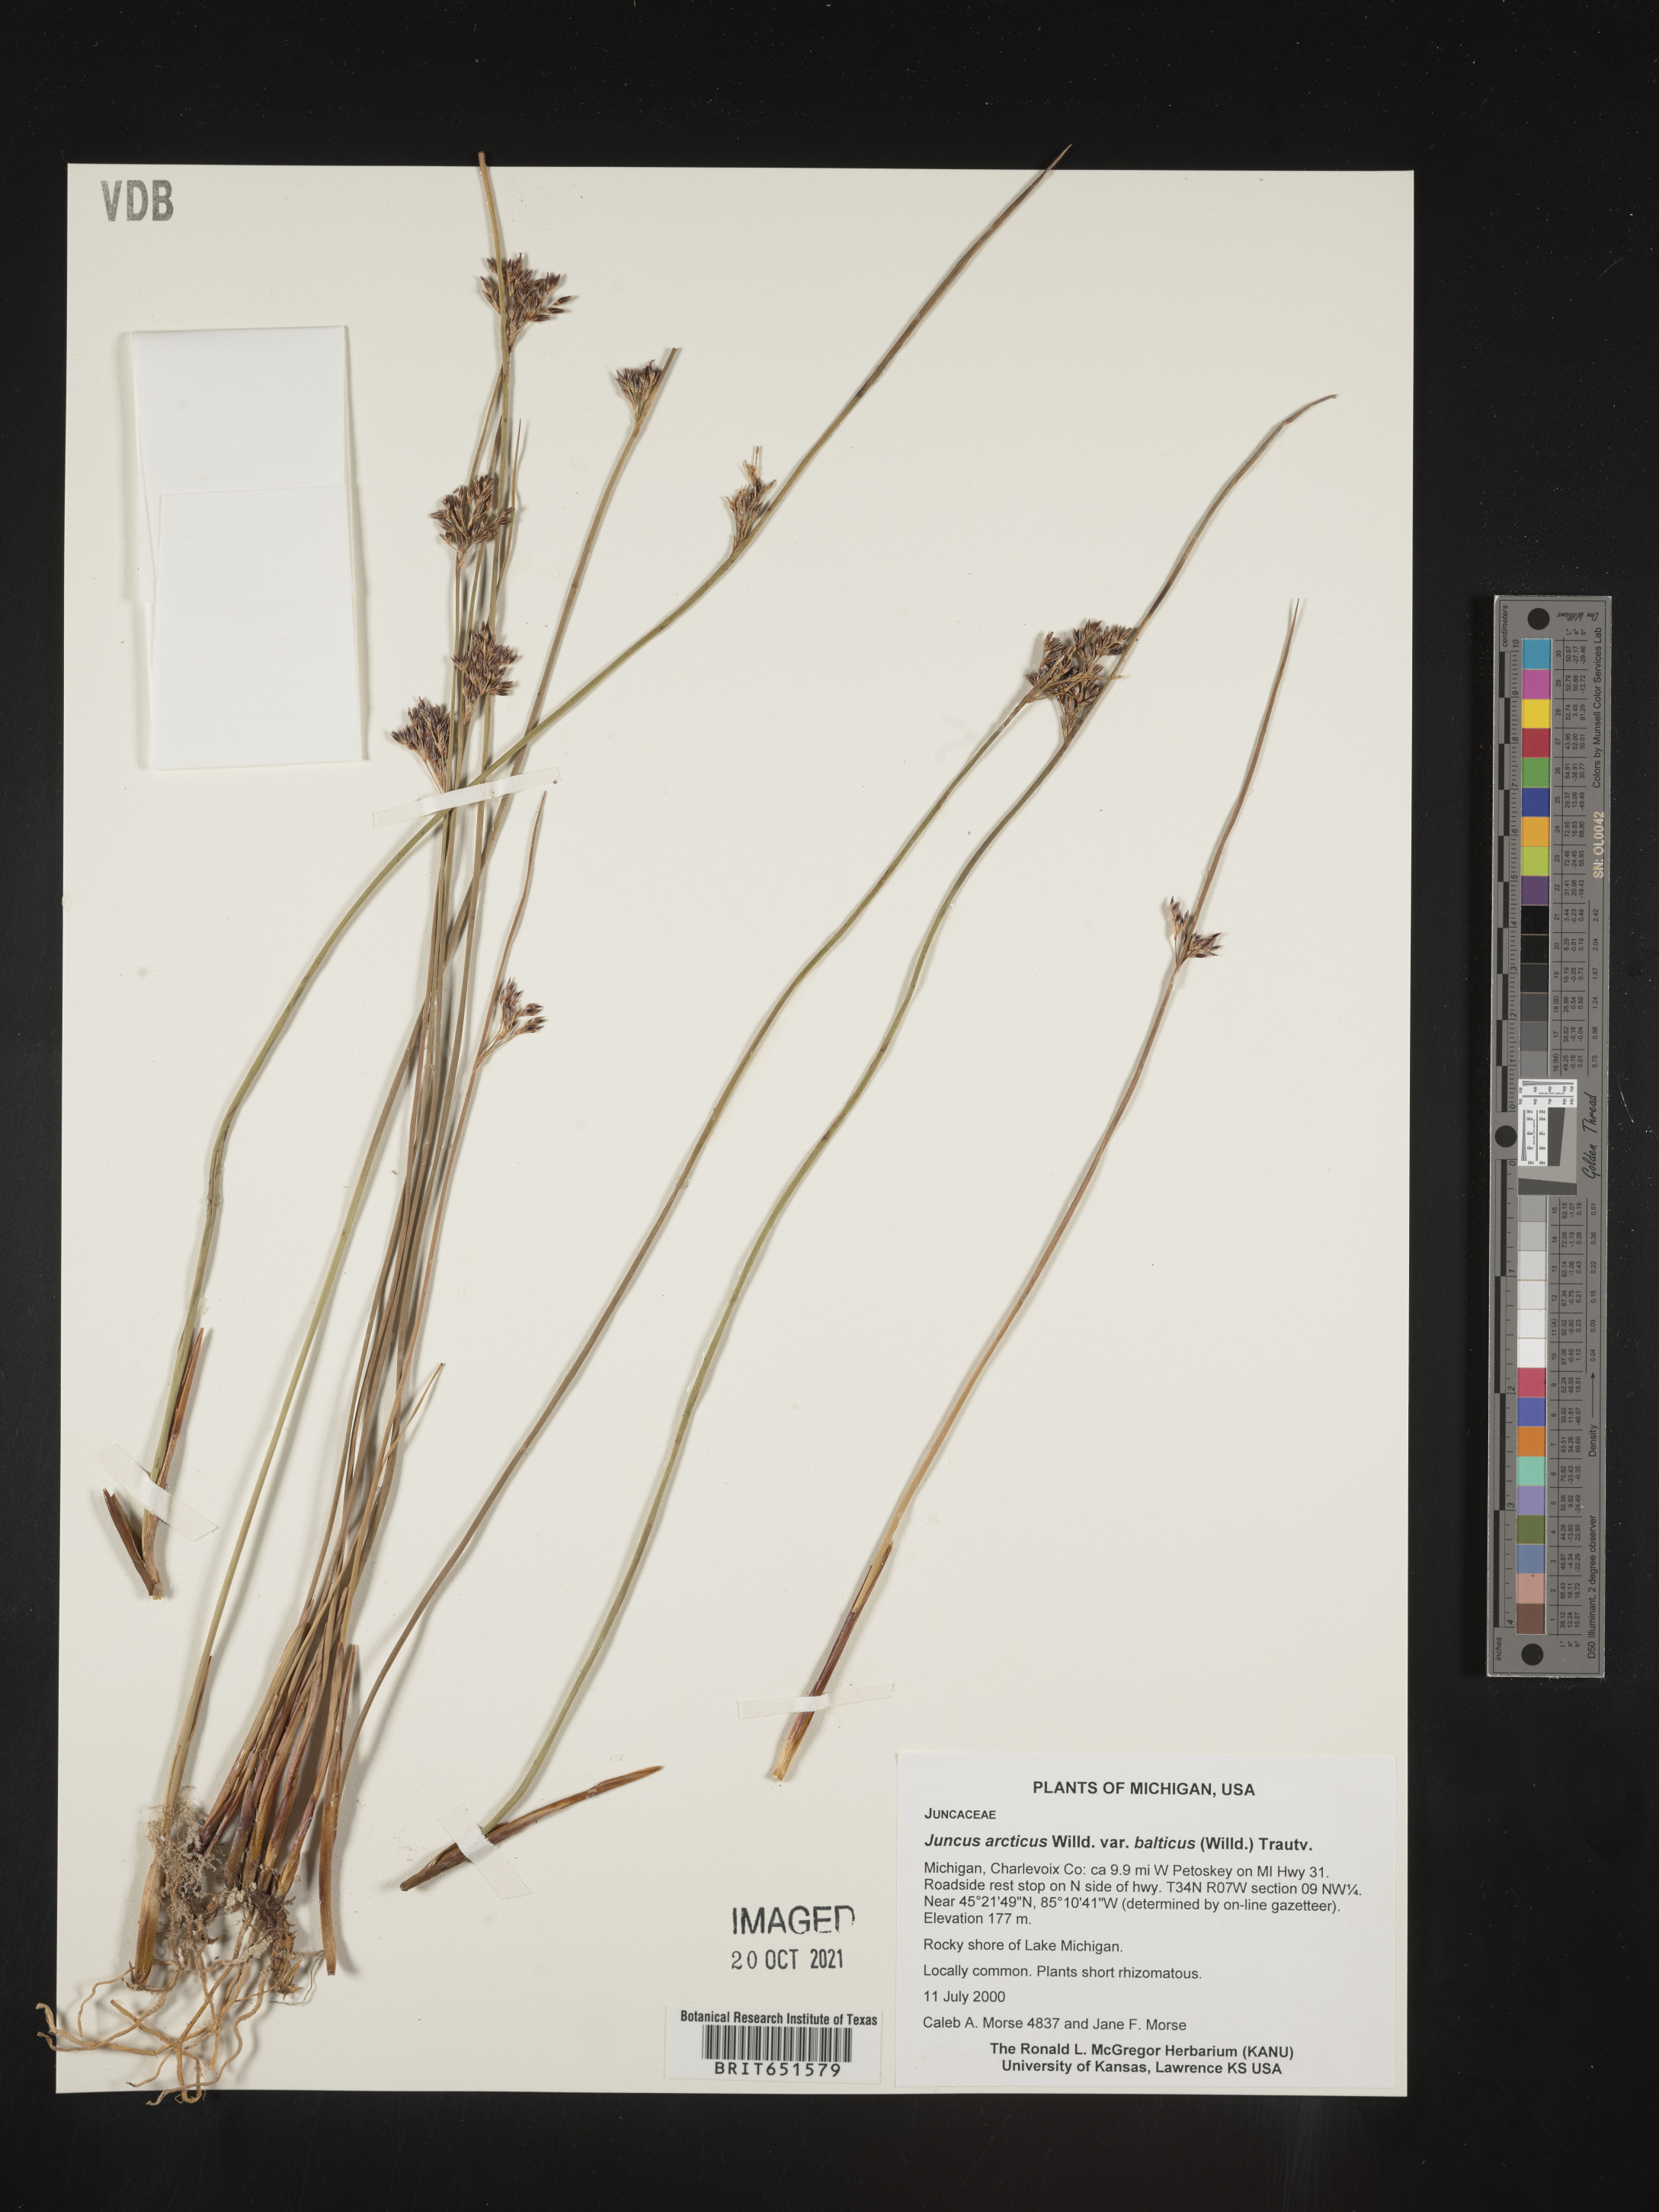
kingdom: Plantae
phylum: Tracheophyta
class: Liliopsida
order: Poales
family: Juncaceae
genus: Juncus
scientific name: Juncus arcticus
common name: Arctic rush
